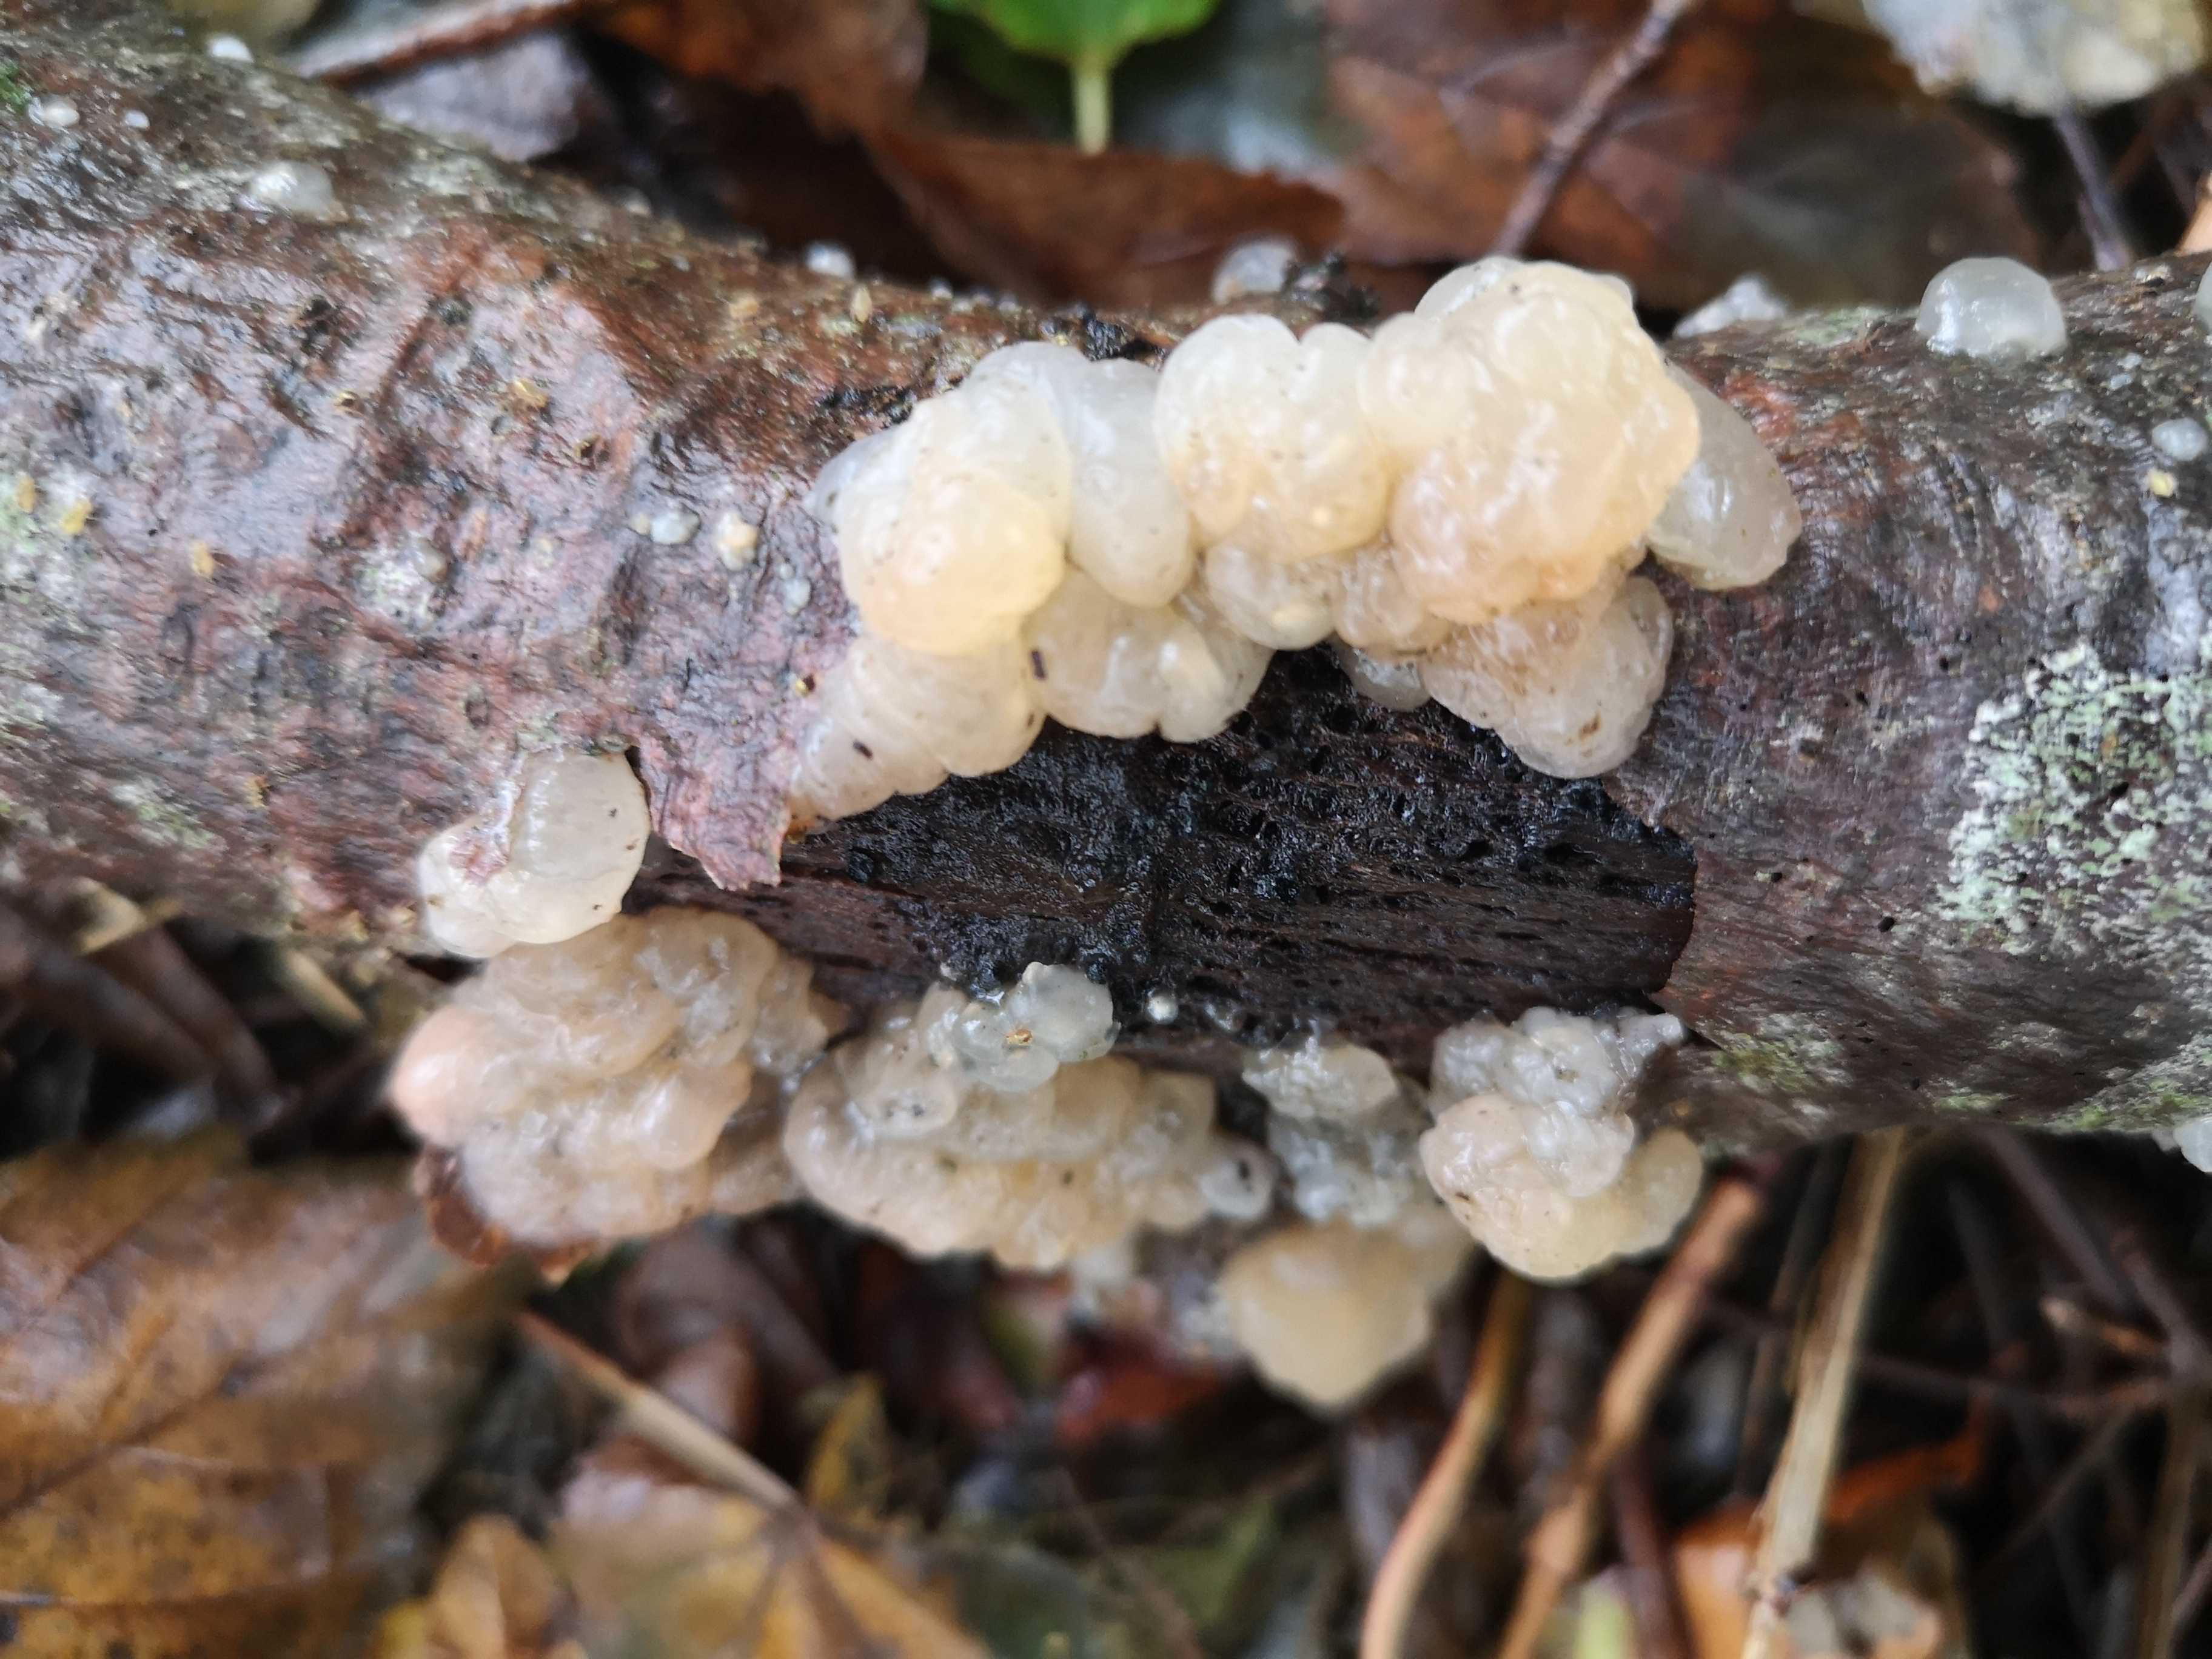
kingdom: Fungi
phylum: Basidiomycota
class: Agaricomycetes
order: Auriculariales
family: Hyaloriaceae
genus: Myxarium
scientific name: Myxarium
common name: bævretop
